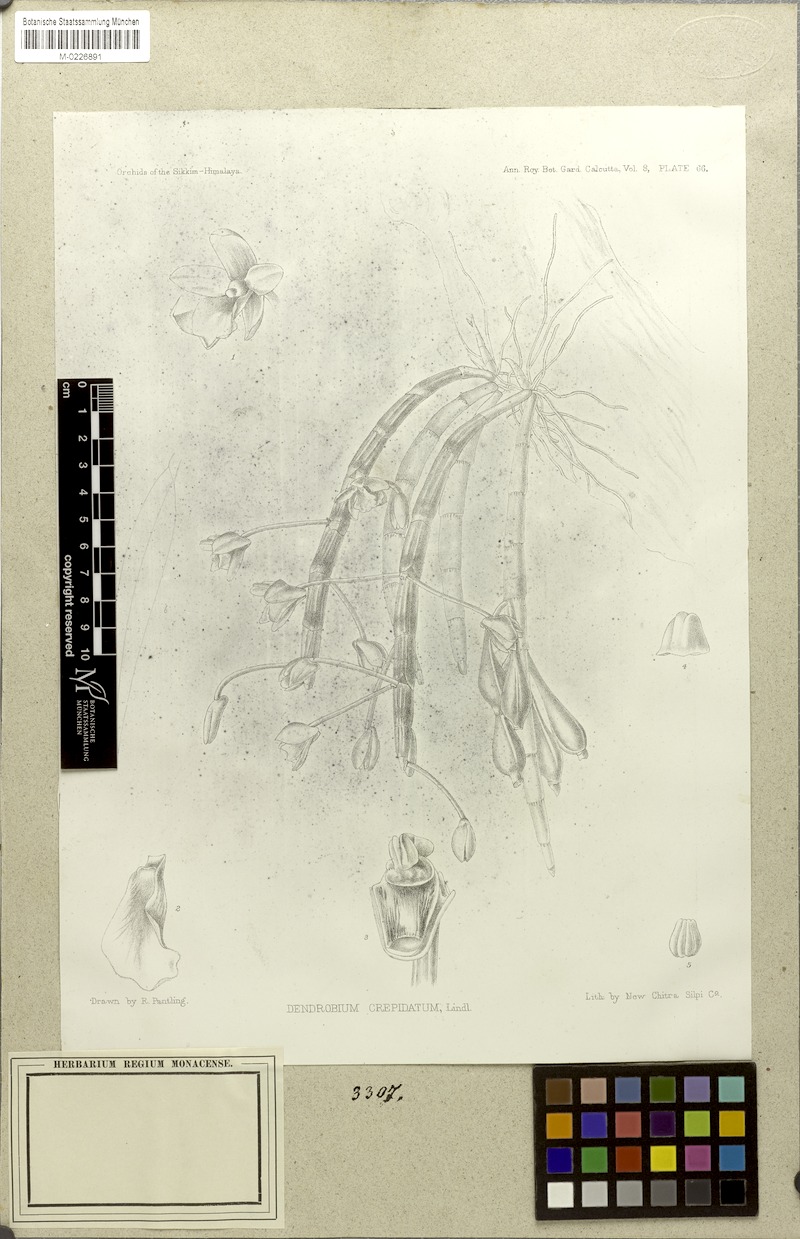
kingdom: Plantae
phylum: Tracheophyta
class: Liliopsida
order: Asparagales
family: Orchidaceae
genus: Dendrobium
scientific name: Dendrobium crepidatum
